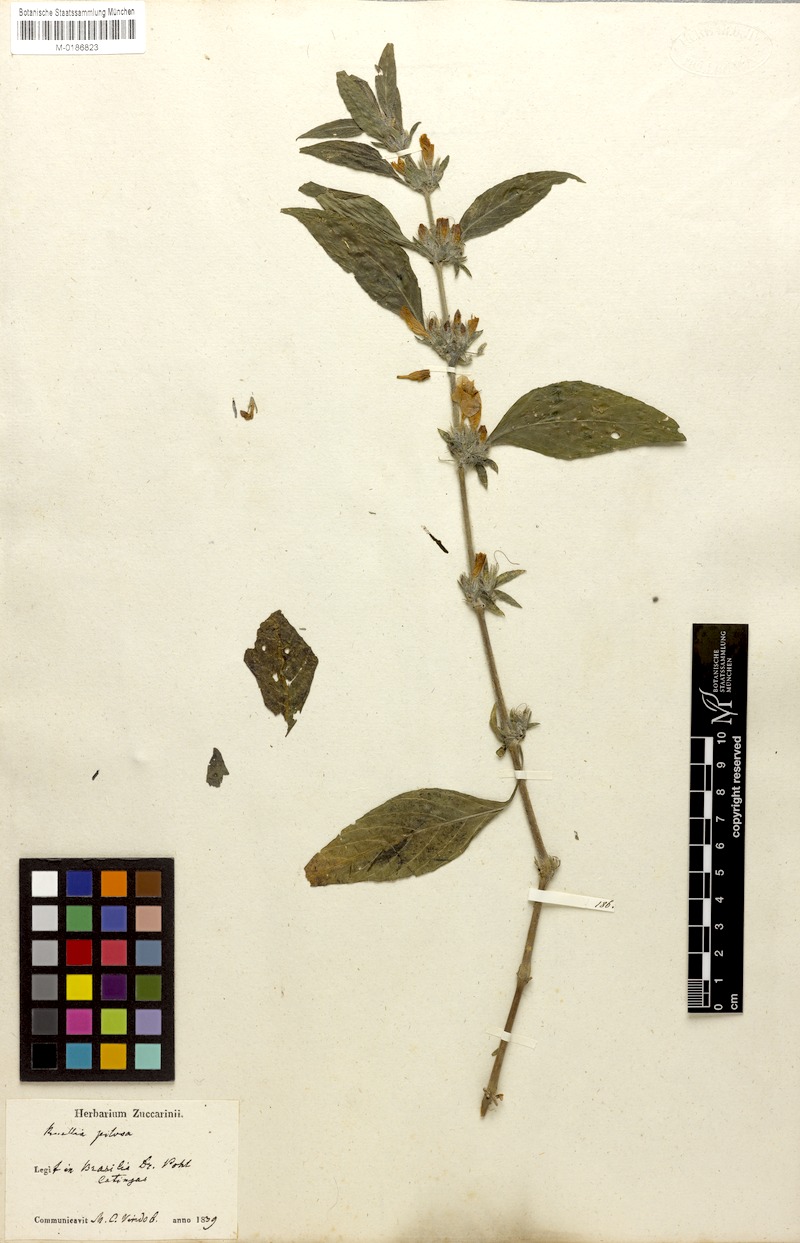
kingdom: Plantae
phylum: Tracheophyta
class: Magnoliopsida
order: Lamiales
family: Acanthaceae
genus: Ruellia
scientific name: Ruellia viscidula
